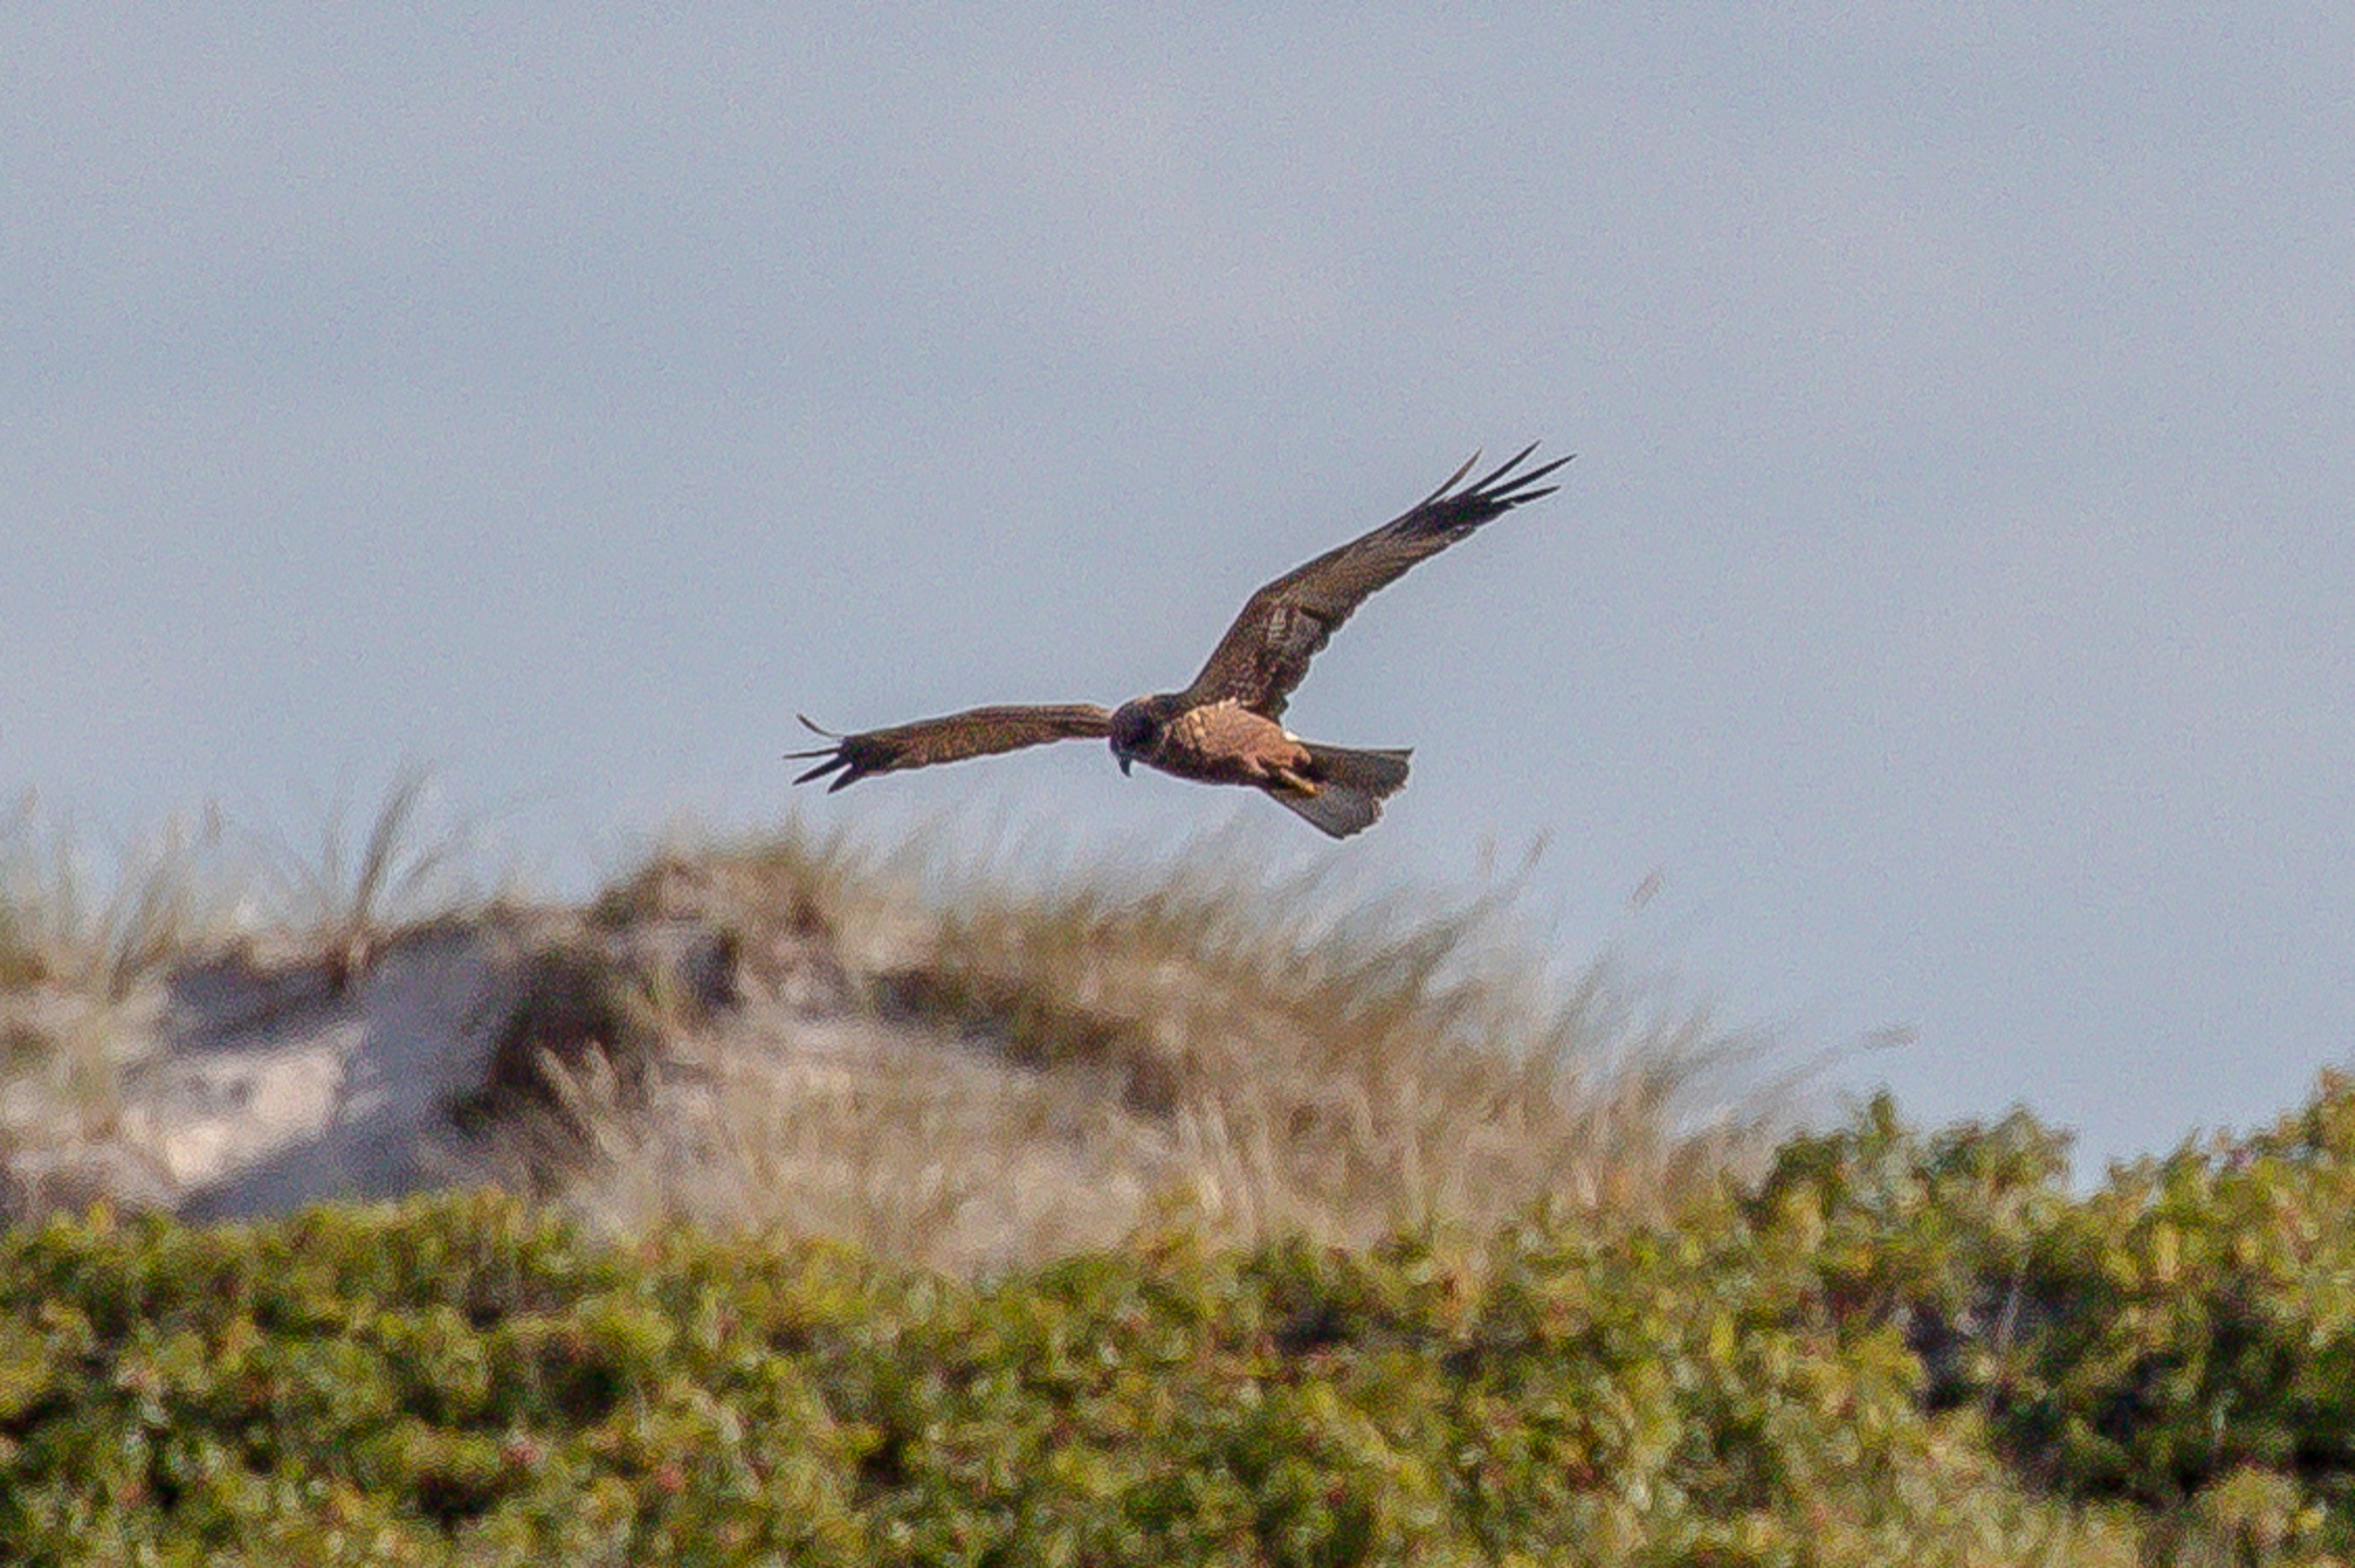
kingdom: Animalia
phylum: Chordata
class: Aves
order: Accipitriformes
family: Accipitridae
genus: Circus
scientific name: Circus aeruginosus
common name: Rørhøg
